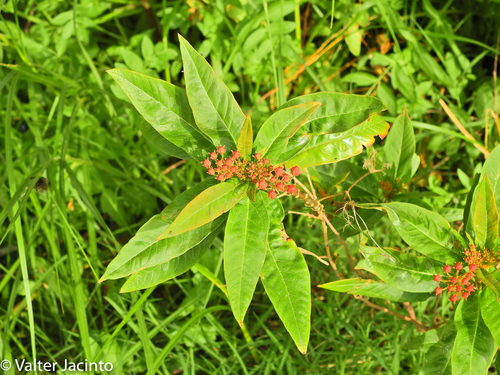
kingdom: Plantae
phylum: Tracheophyta
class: Magnoliopsida
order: Gentianales
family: Apocynaceae
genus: Asclepias
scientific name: Asclepias curassavica
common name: Bloodflower
